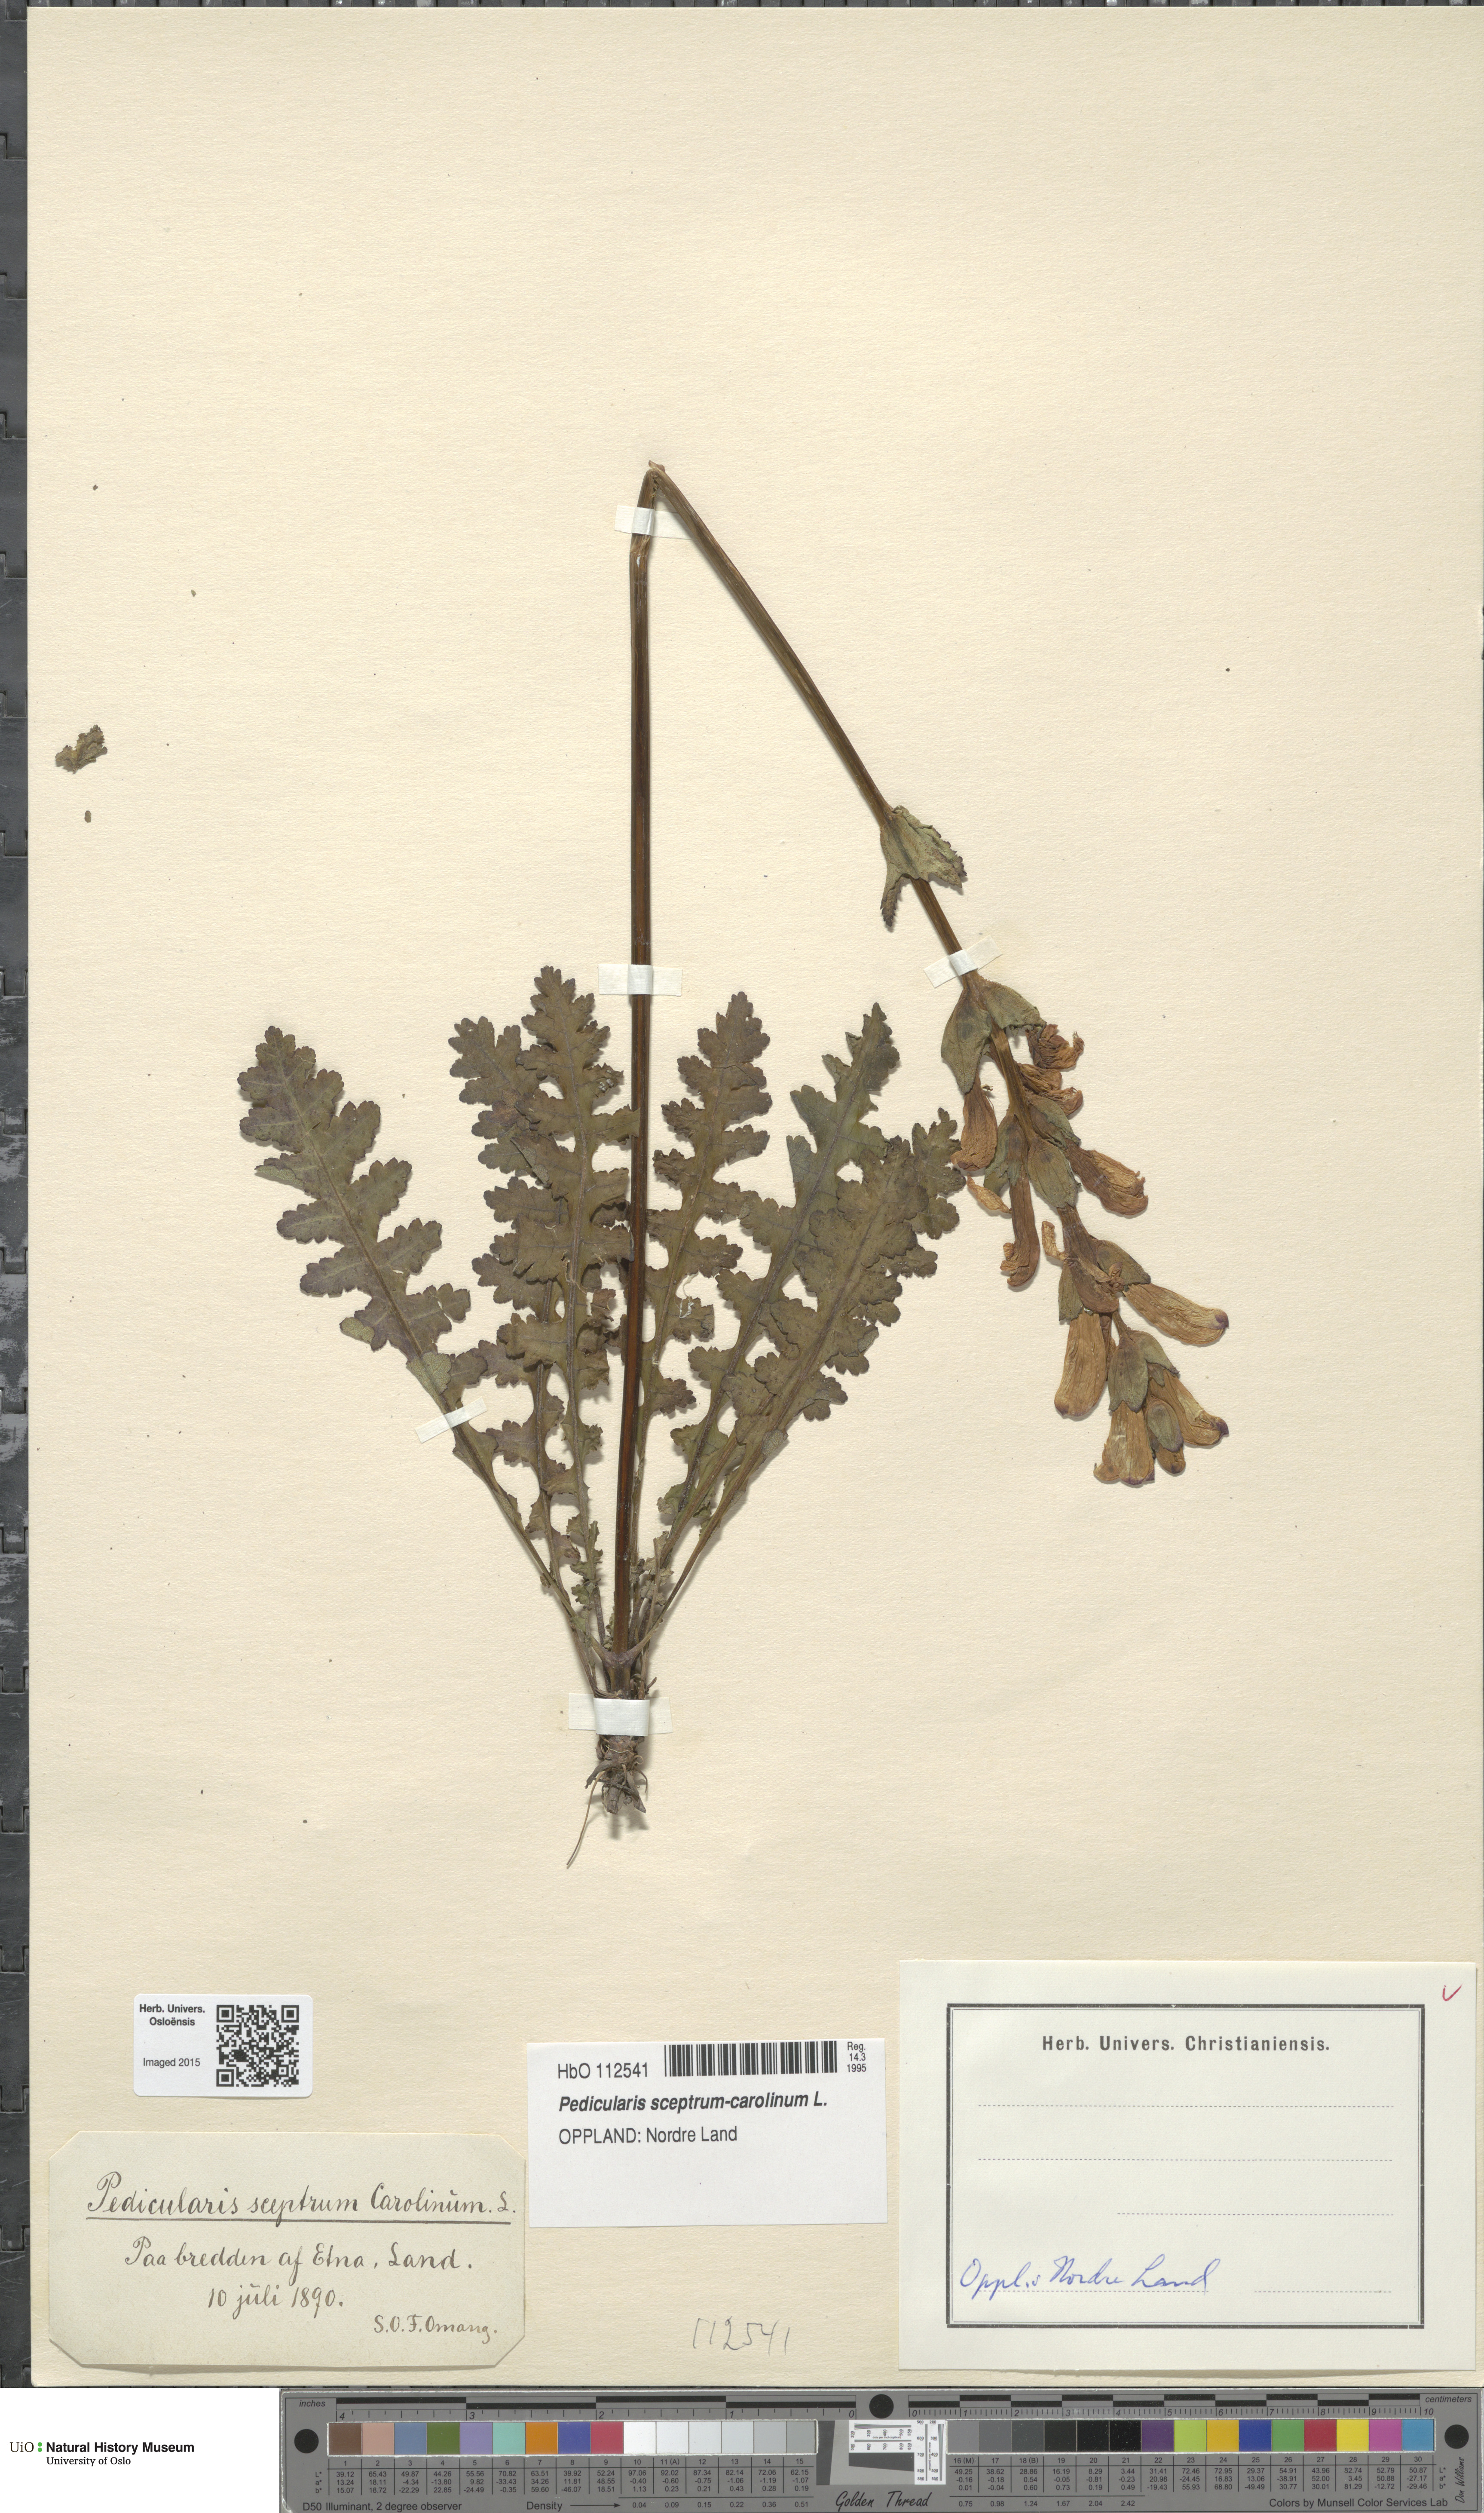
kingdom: Plantae
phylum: Tracheophyta
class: Magnoliopsida
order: Lamiales
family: Orobanchaceae
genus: Pedicularis
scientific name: Pedicularis sceptrum-carolinum
